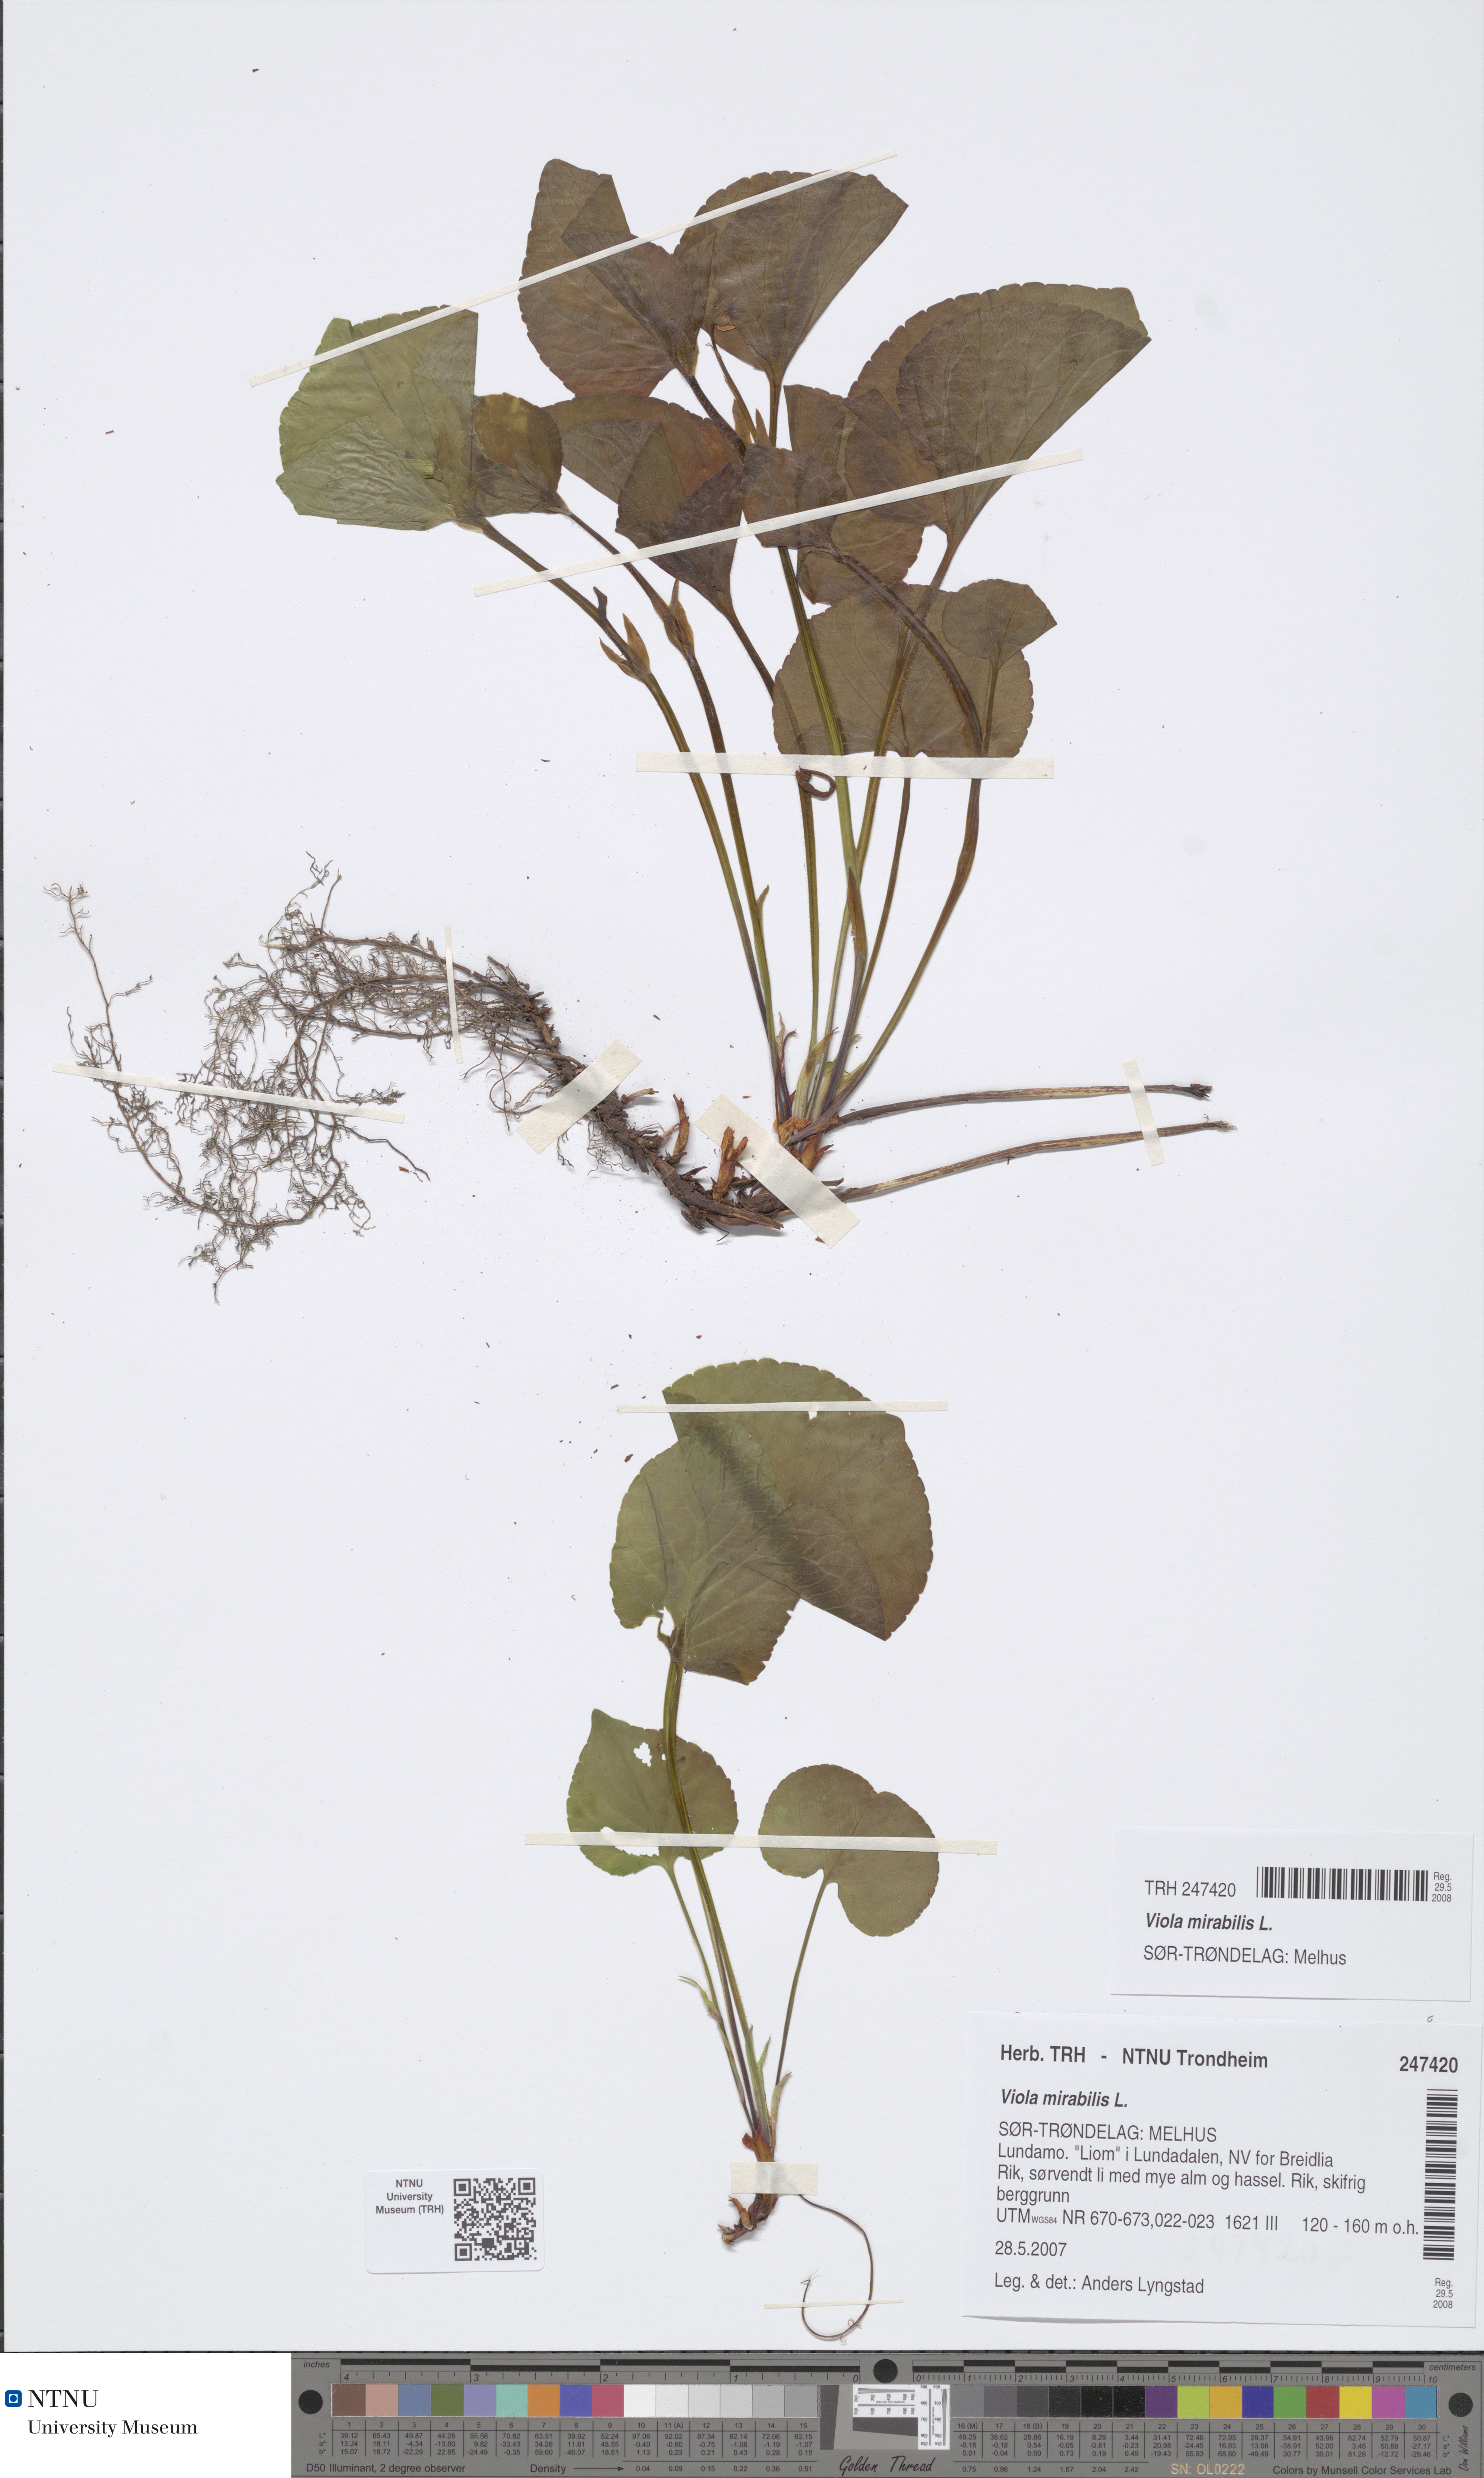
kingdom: Plantae
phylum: Tracheophyta
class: Magnoliopsida
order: Malpighiales
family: Violaceae
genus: Viola
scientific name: Viola mirabilis
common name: Wonder violet
